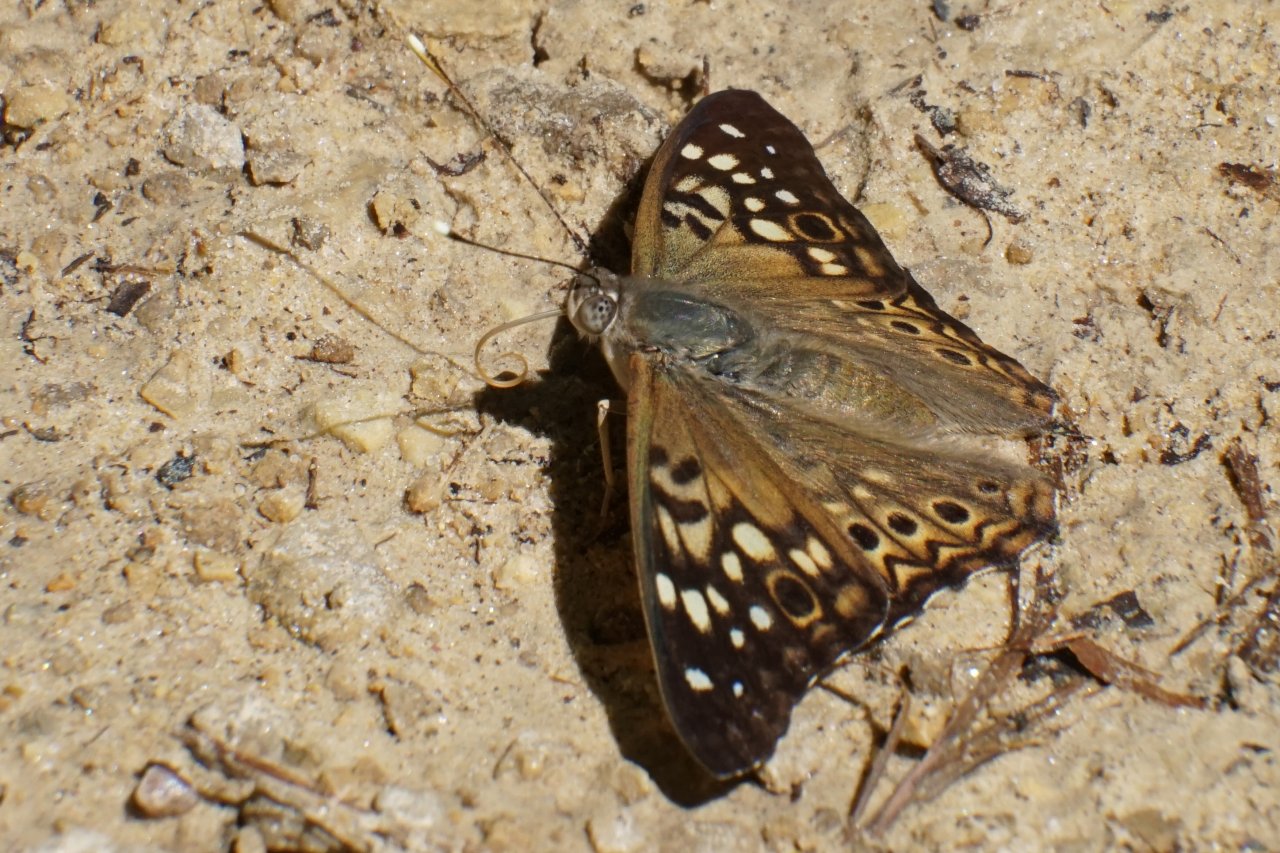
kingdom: Animalia
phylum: Arthropoda
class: Insecta
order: Lepidoptera
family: Nymphalidae
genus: Asterocampa
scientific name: Asterocampa celtis
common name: Hackberry Emperor
